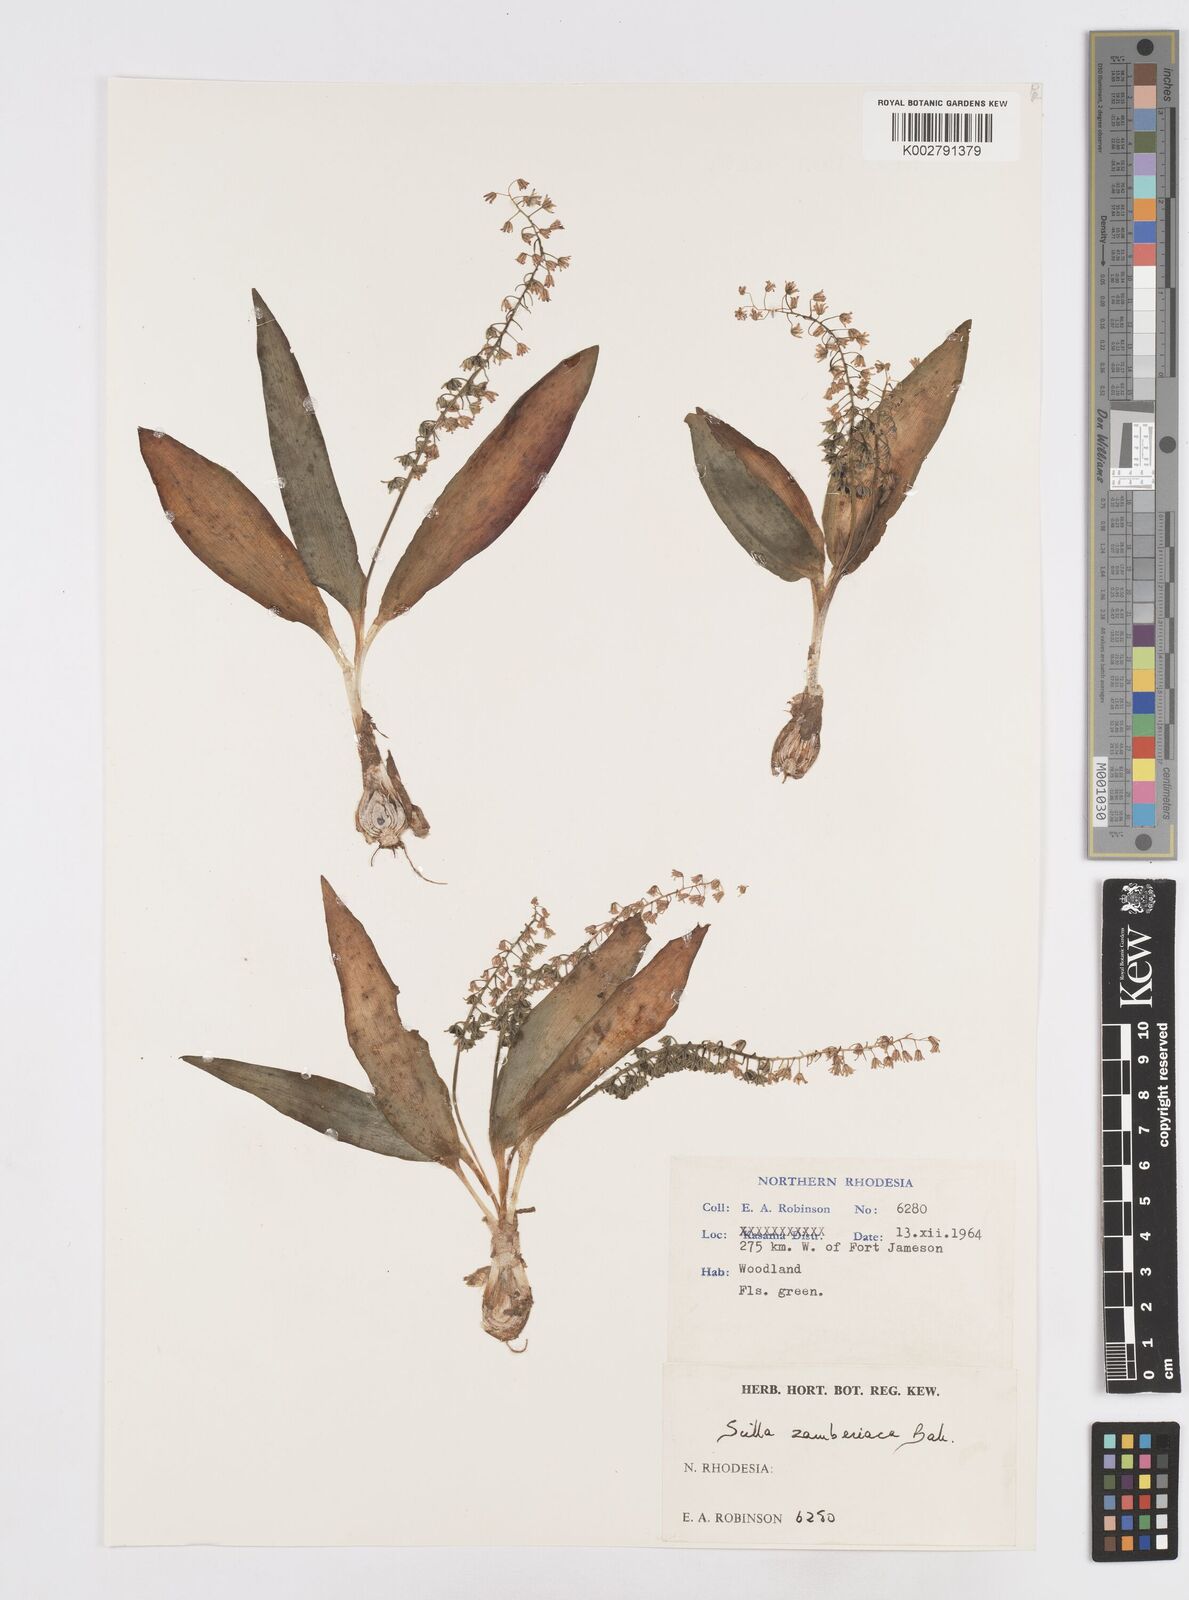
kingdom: Plantae
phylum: Tracheophyta
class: Liliopsida
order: Asparagales
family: Asparagaceae
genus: Ledebouria
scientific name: Ledebouria zambesiaca
